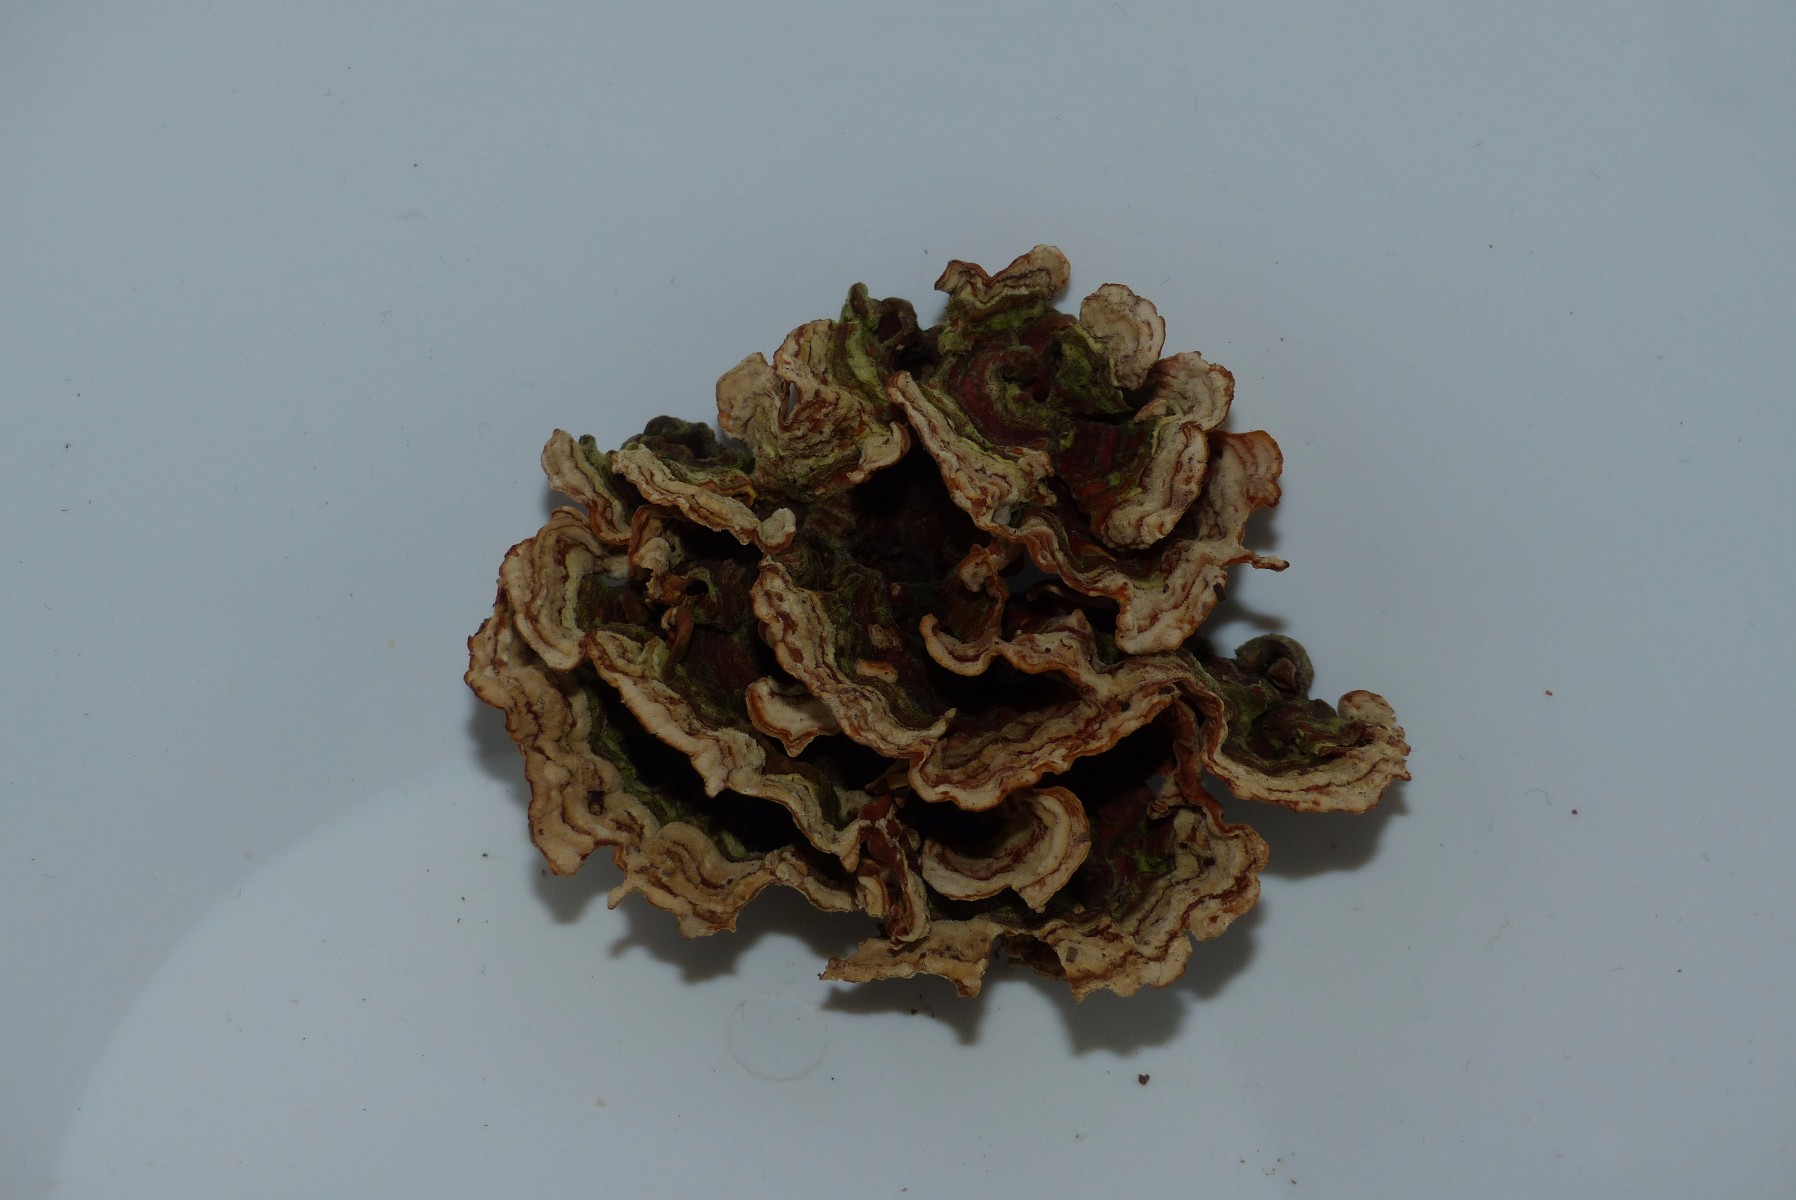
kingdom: Fungi
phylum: Basidiomycota
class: Agaricomycetes
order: Russulales
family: Stereaceae
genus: Stereum
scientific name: Stereum subtomentosum
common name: smuk lædersvamp
